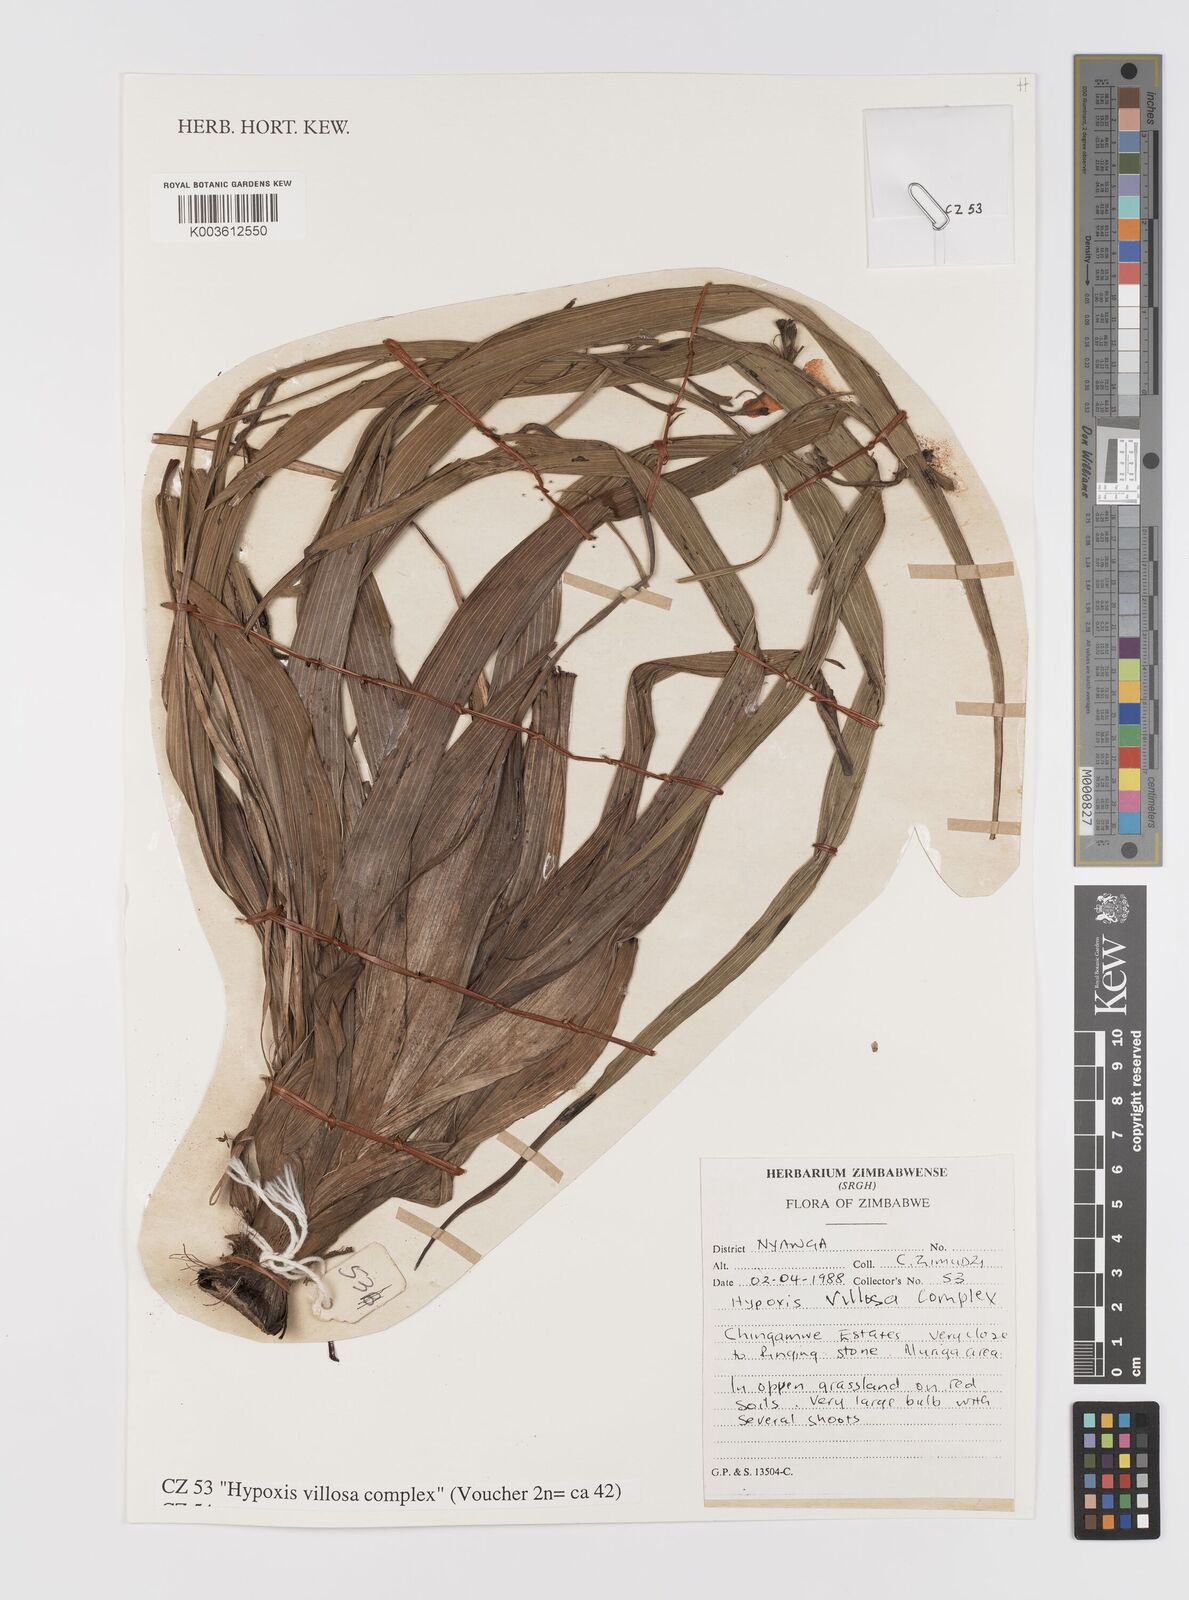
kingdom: Plantae
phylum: Tracheophyta
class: Liliopsida
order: Asparagales
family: Hypoxidaceae
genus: Hypoxis
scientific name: Hypoxis
